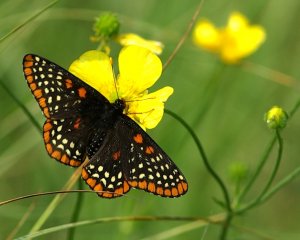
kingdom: Animalia
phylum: Arthropoda
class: Insecta
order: Lepidoptera
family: Nymphalidae
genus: Euphydryas
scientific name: Euphydryas phaeton
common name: Baltimore Checkerspot
